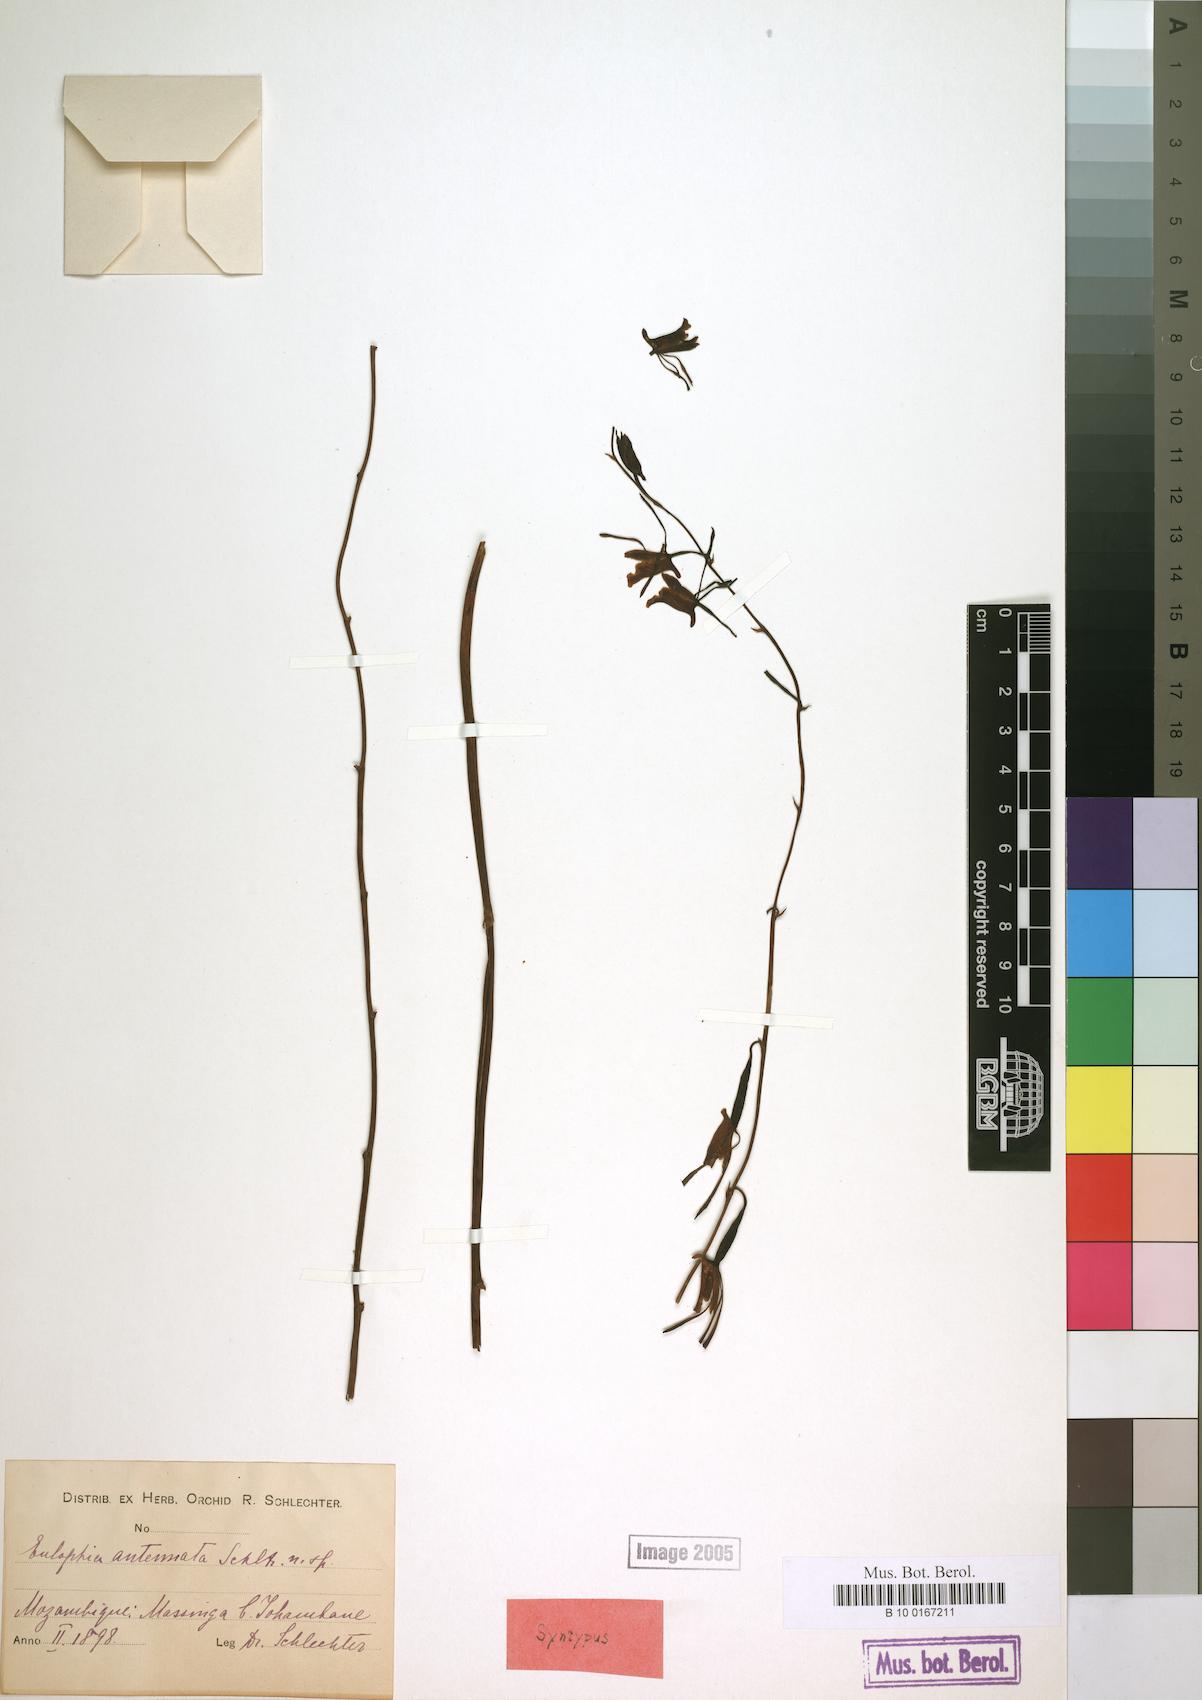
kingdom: Plantae
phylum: Tracheophyta
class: Liliopsida
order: Asparagales
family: Orchidaceae
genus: Eulophia
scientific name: Eulophia longisepala
